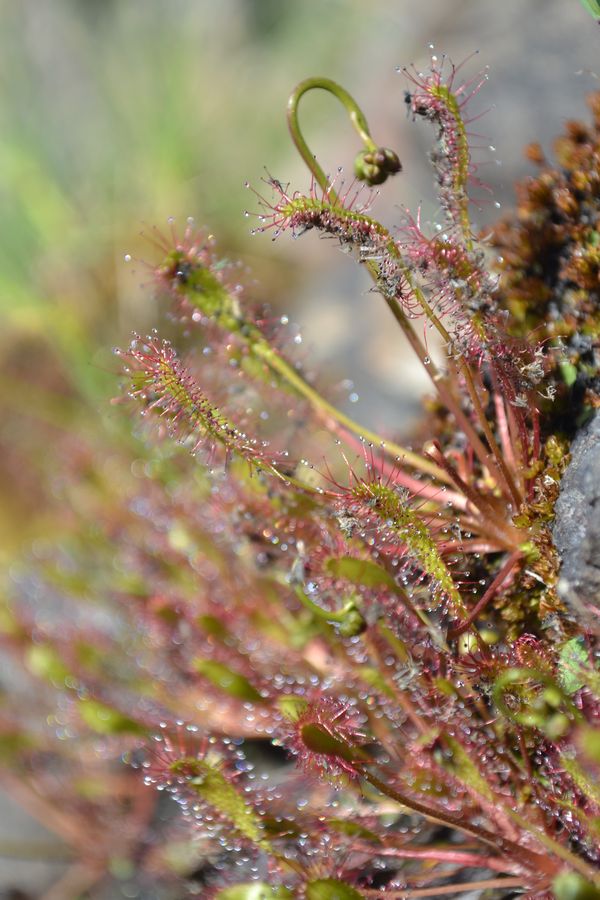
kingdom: Plantae
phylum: Tracheophyta
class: Magnoliopsida
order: Caryophyllales
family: Droseraceae
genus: Drosera
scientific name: Drosera anglica
